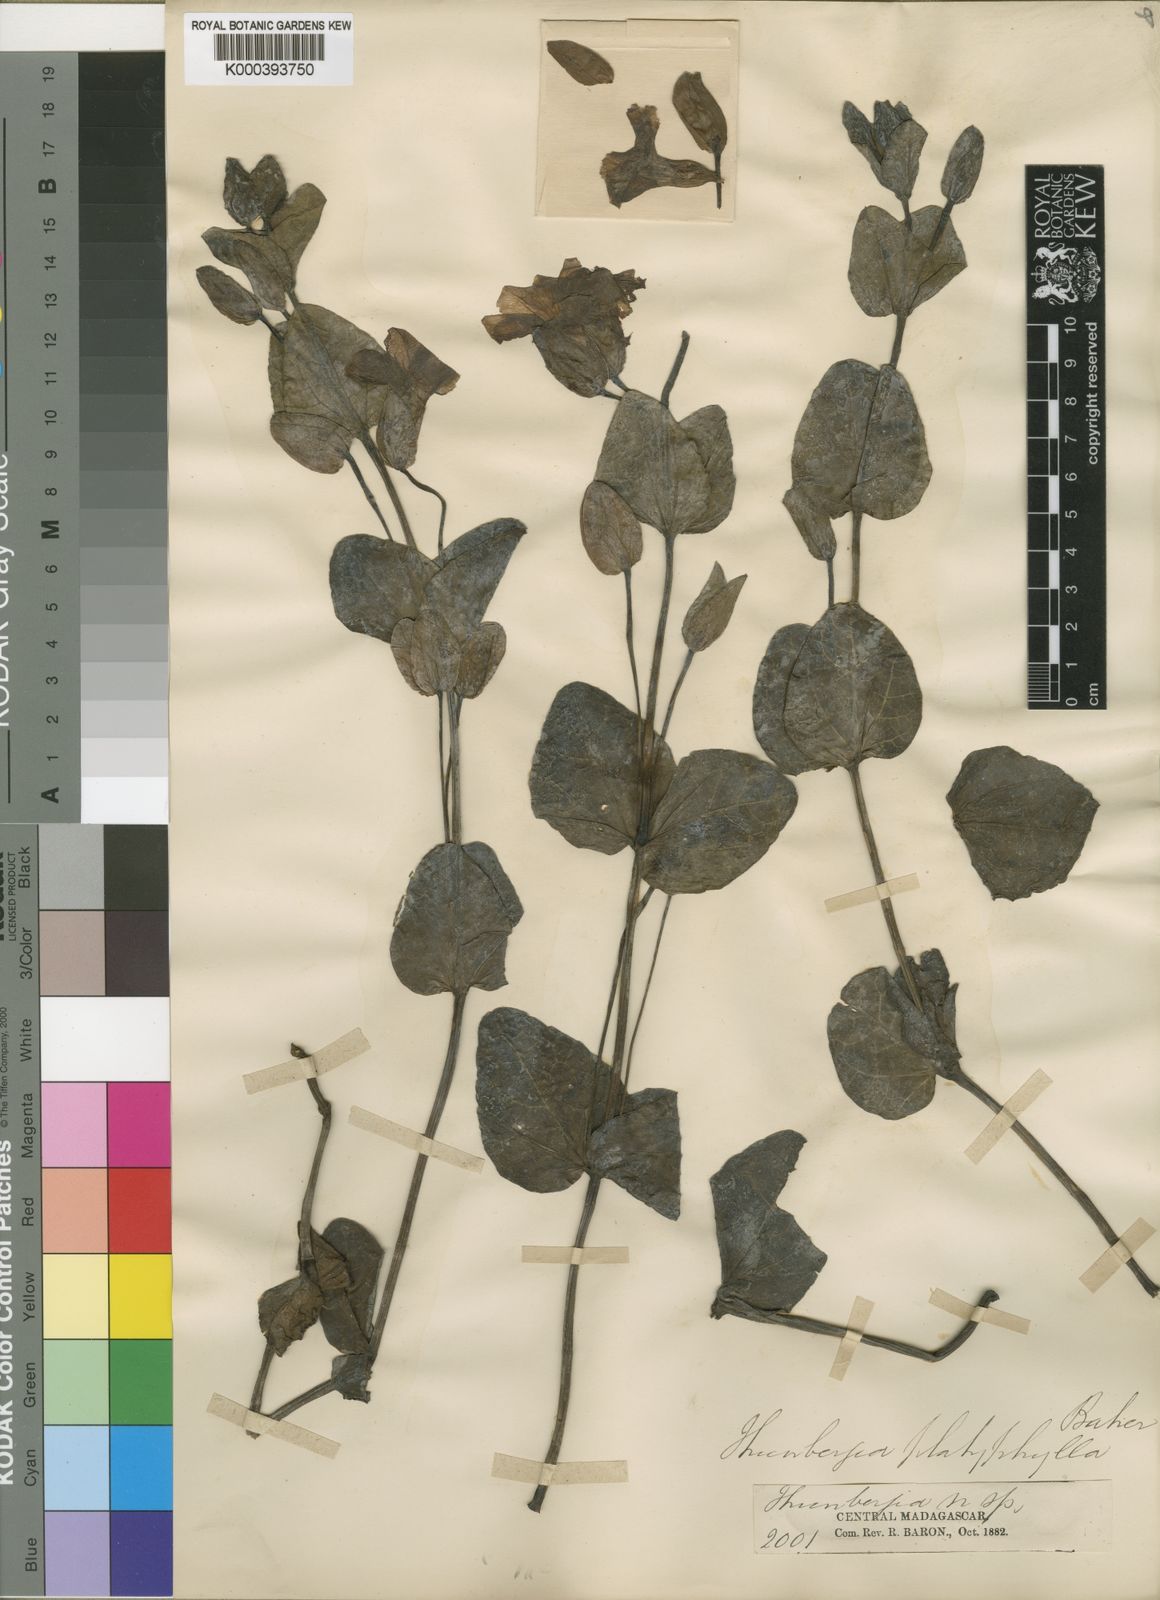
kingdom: Plantae
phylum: Tracheophyta
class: Magnoliopsida
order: Lamiales
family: Acanthaceae
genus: Thunbergia
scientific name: Thunbergia
